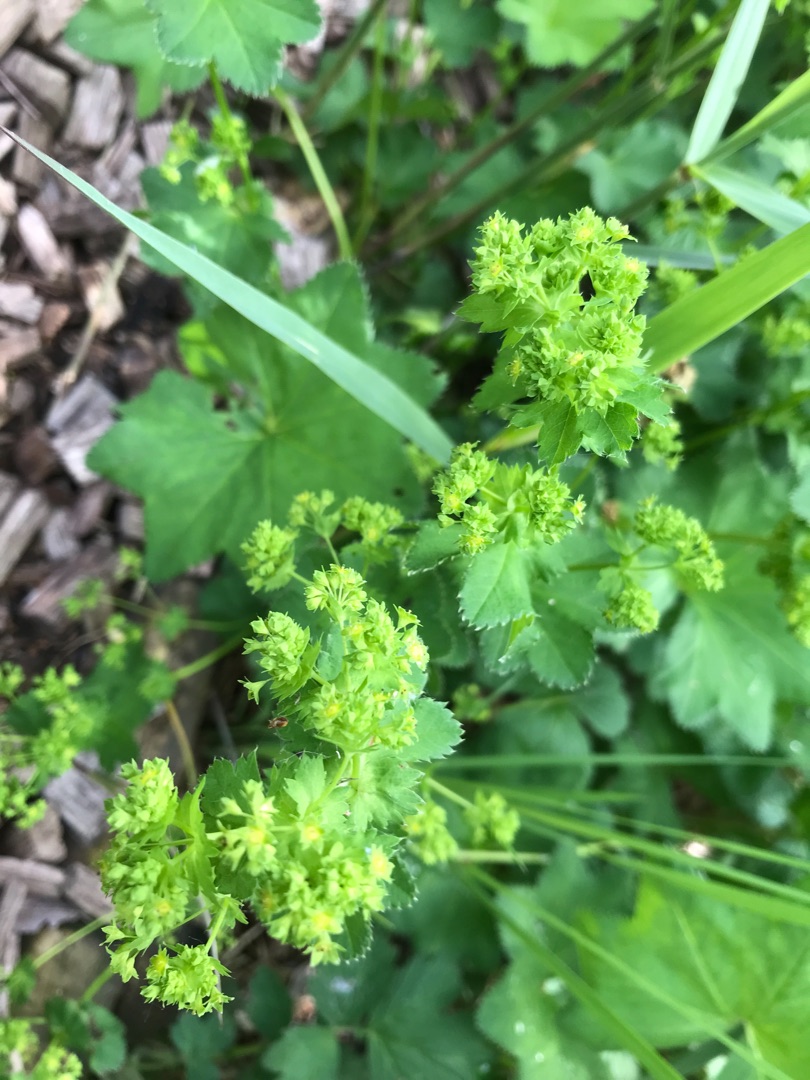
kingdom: Plantae
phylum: Tracheophyta
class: Magnoliopsida
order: Rosales
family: Rosaceae
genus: Alchemilla
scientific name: Alchemilla glabra
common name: Glat løvefod
